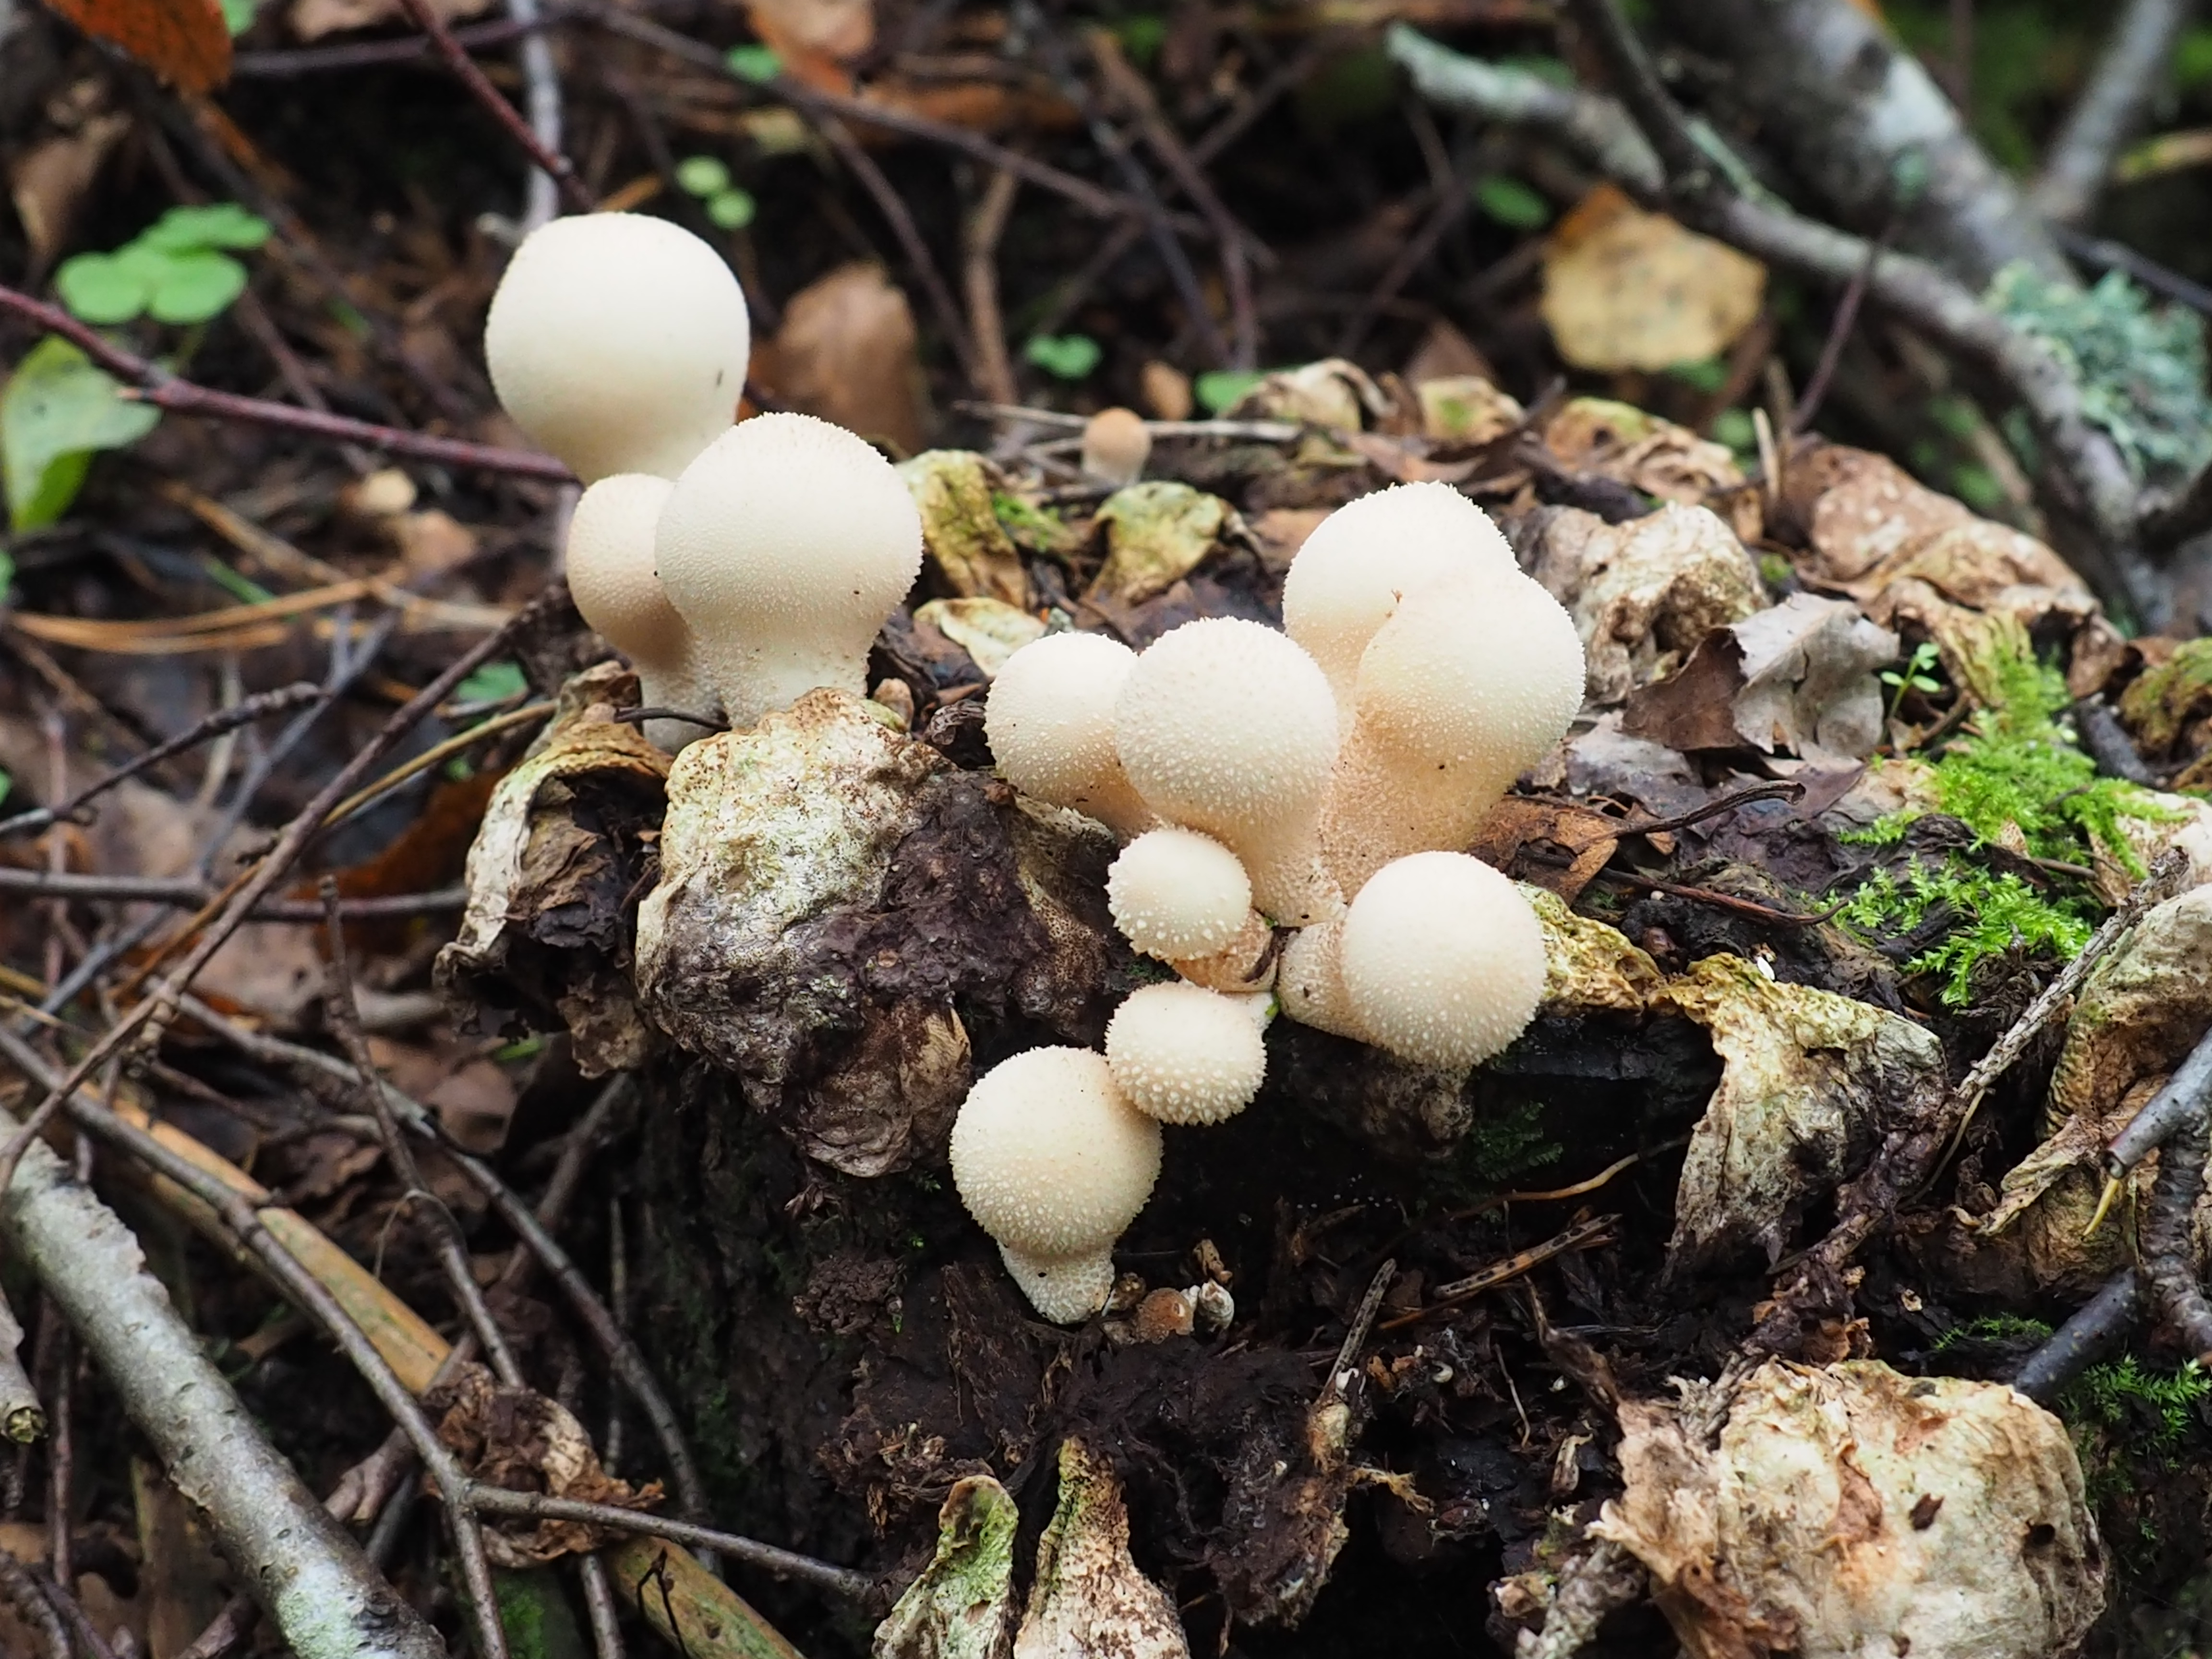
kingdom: Fungi
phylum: Basidiomycota
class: Agaricomycetes
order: Agaricales
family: Lycoperdaceae
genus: Lycoperdon
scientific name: Lycoperdon perlatum
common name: Common puffball
